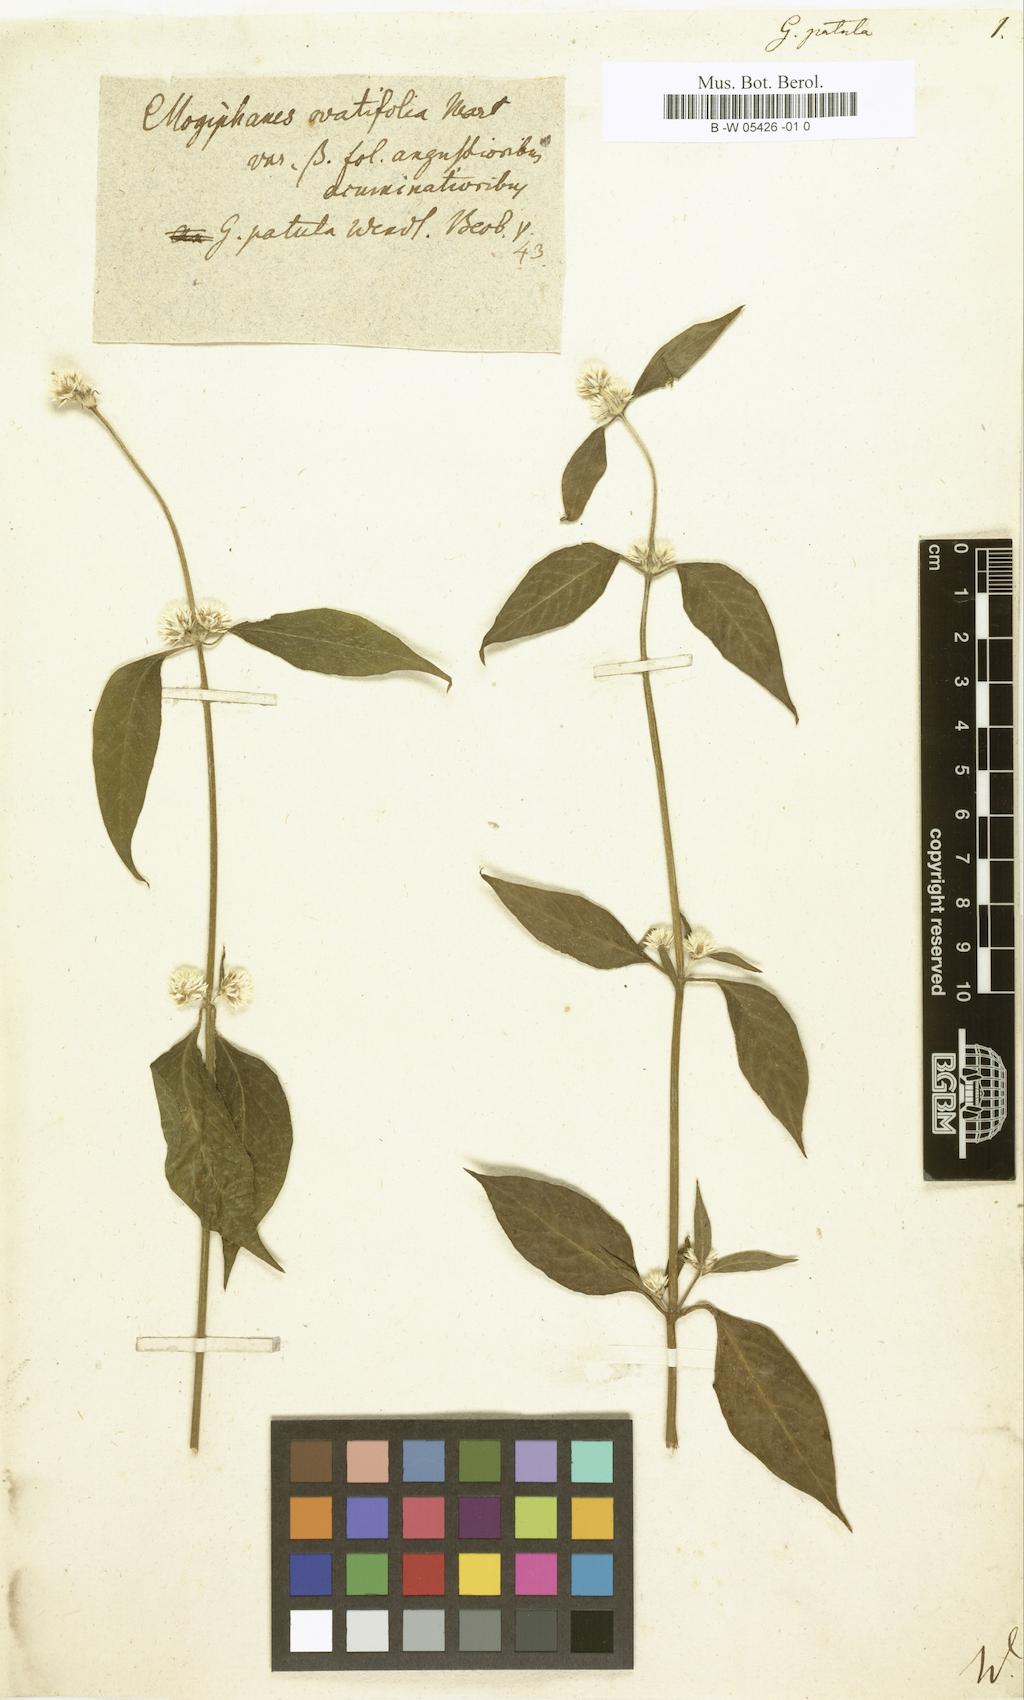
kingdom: Plantae
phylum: Tracheophyta
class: Magnoliopsida
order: Caryophyllales
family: Amaranthaceae
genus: Alternanthera
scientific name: Alternanthera brasiliana
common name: Brazilian joyweed
